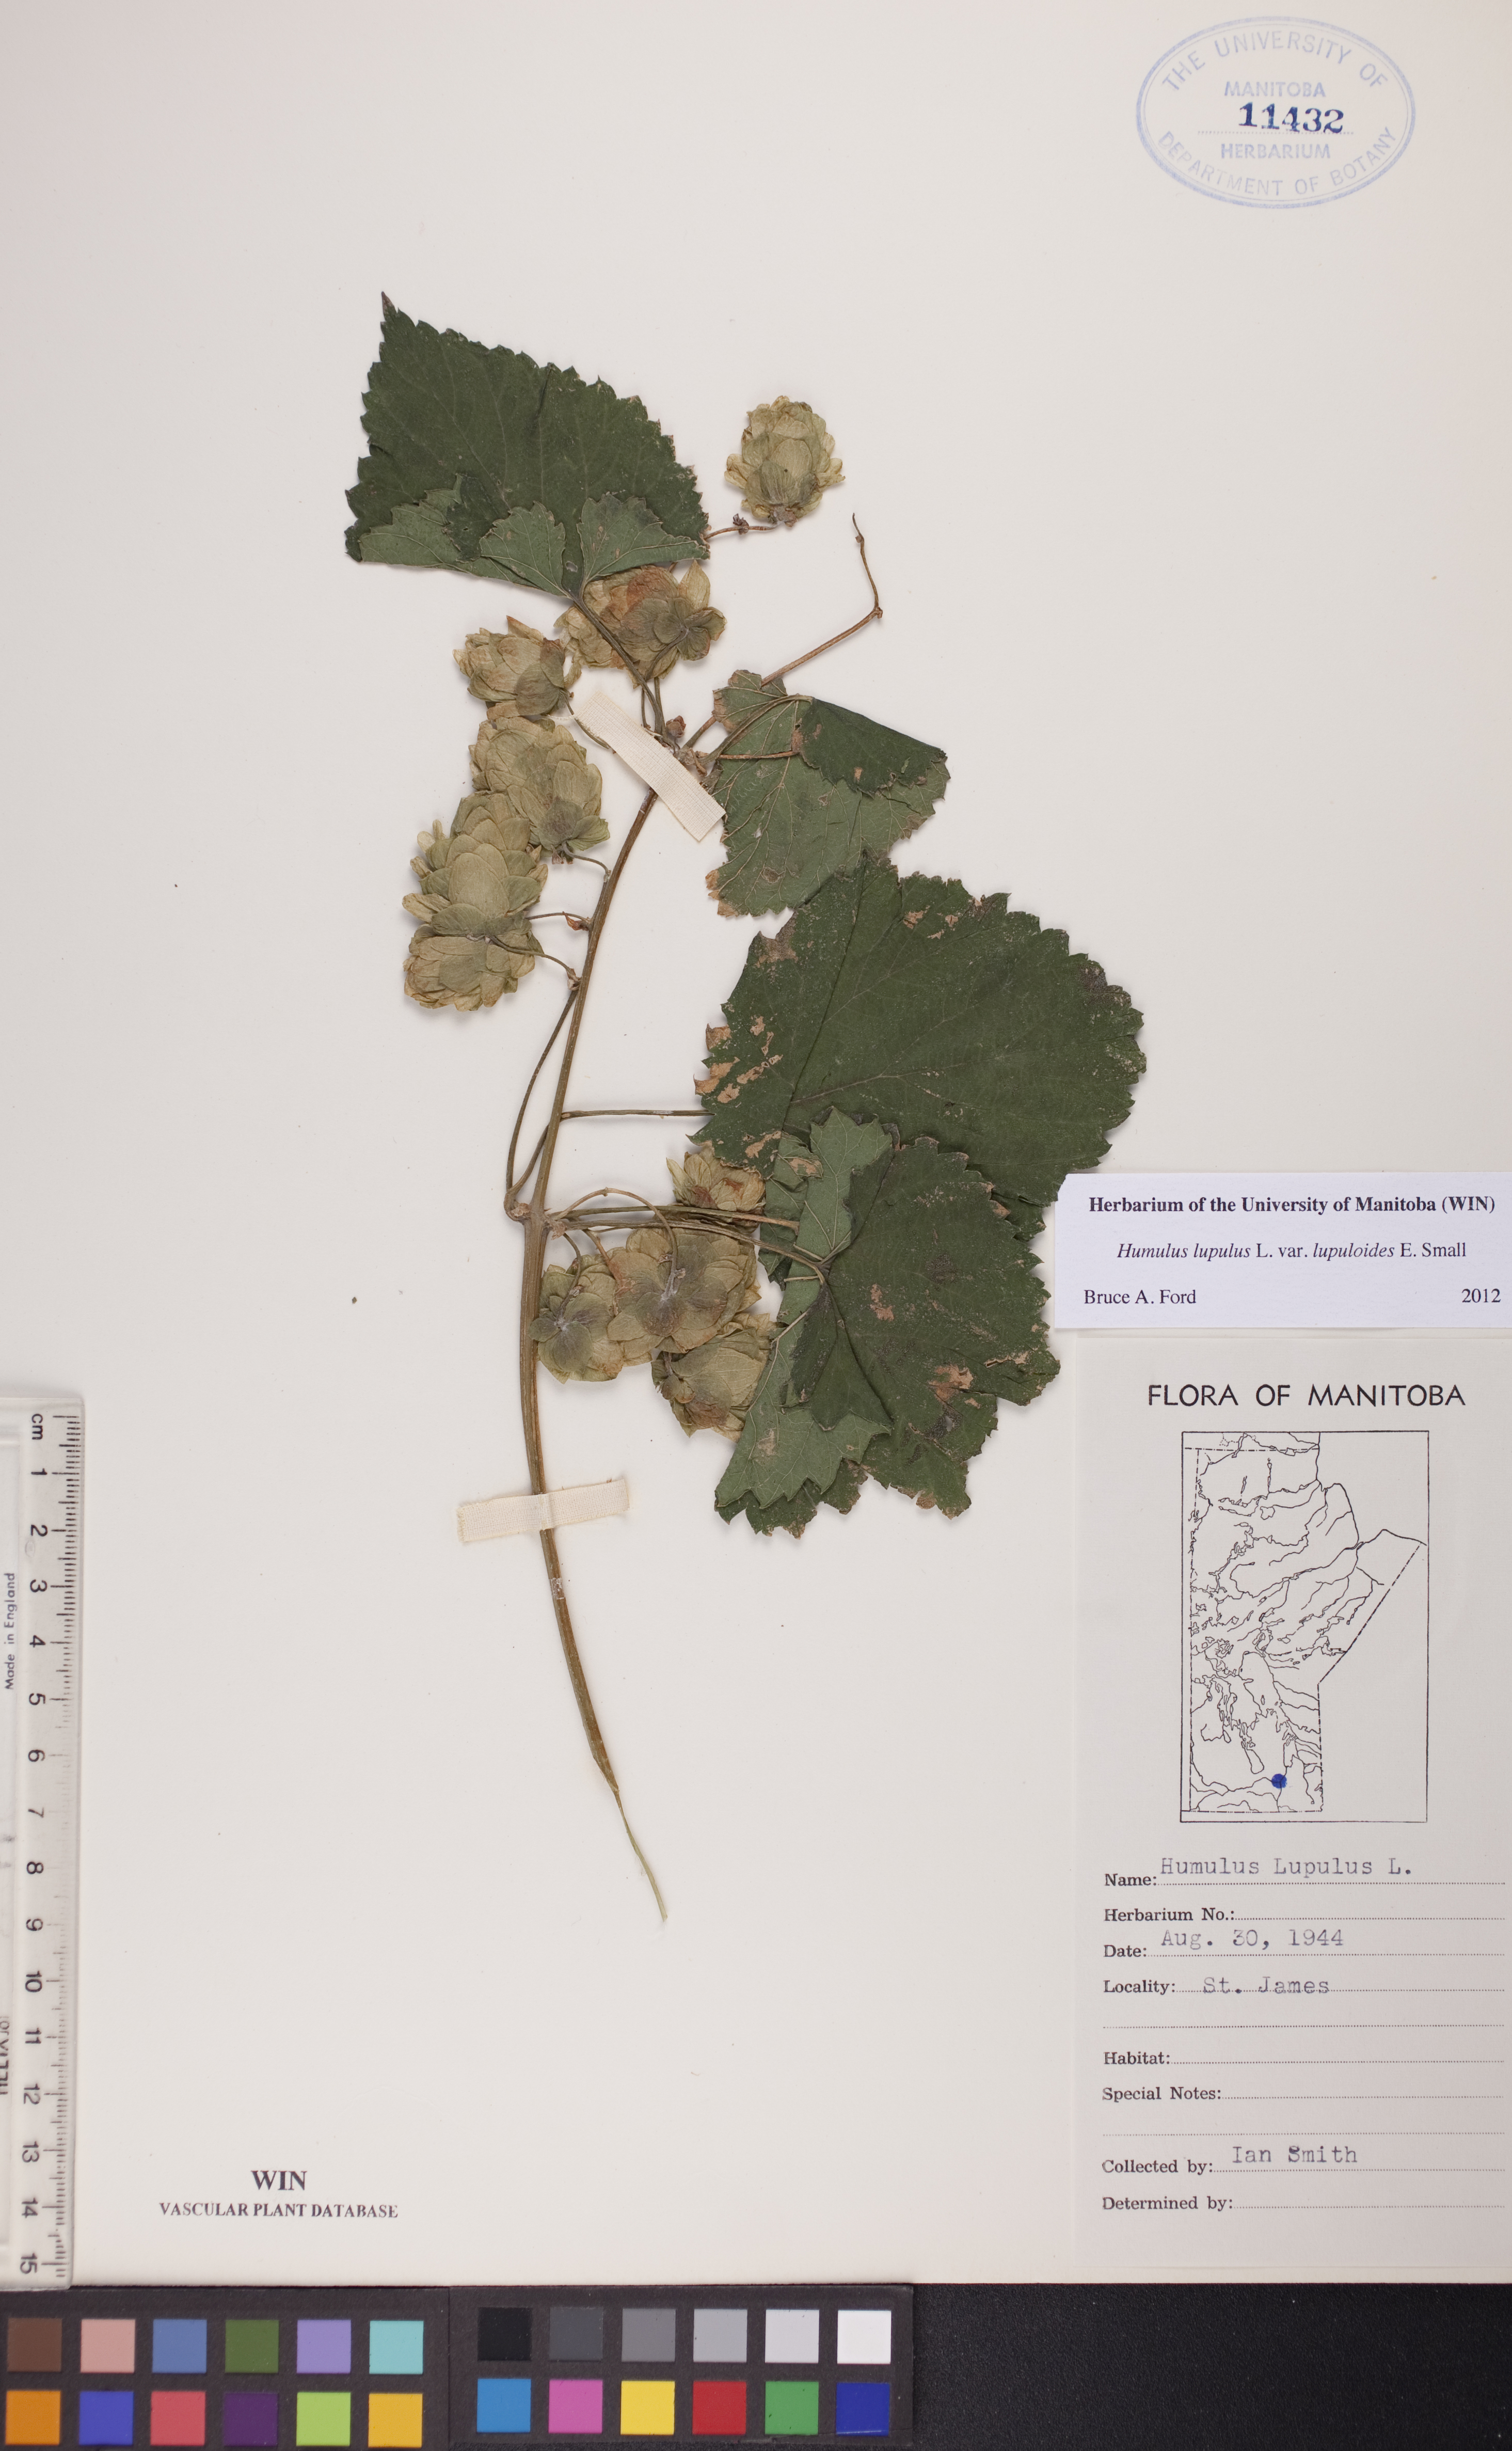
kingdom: Plantae
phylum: Tracheophyta
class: Magnoliopsida
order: Rosales
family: Cannabaceae
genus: Humulus
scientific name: Humulus americanus
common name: American hops
